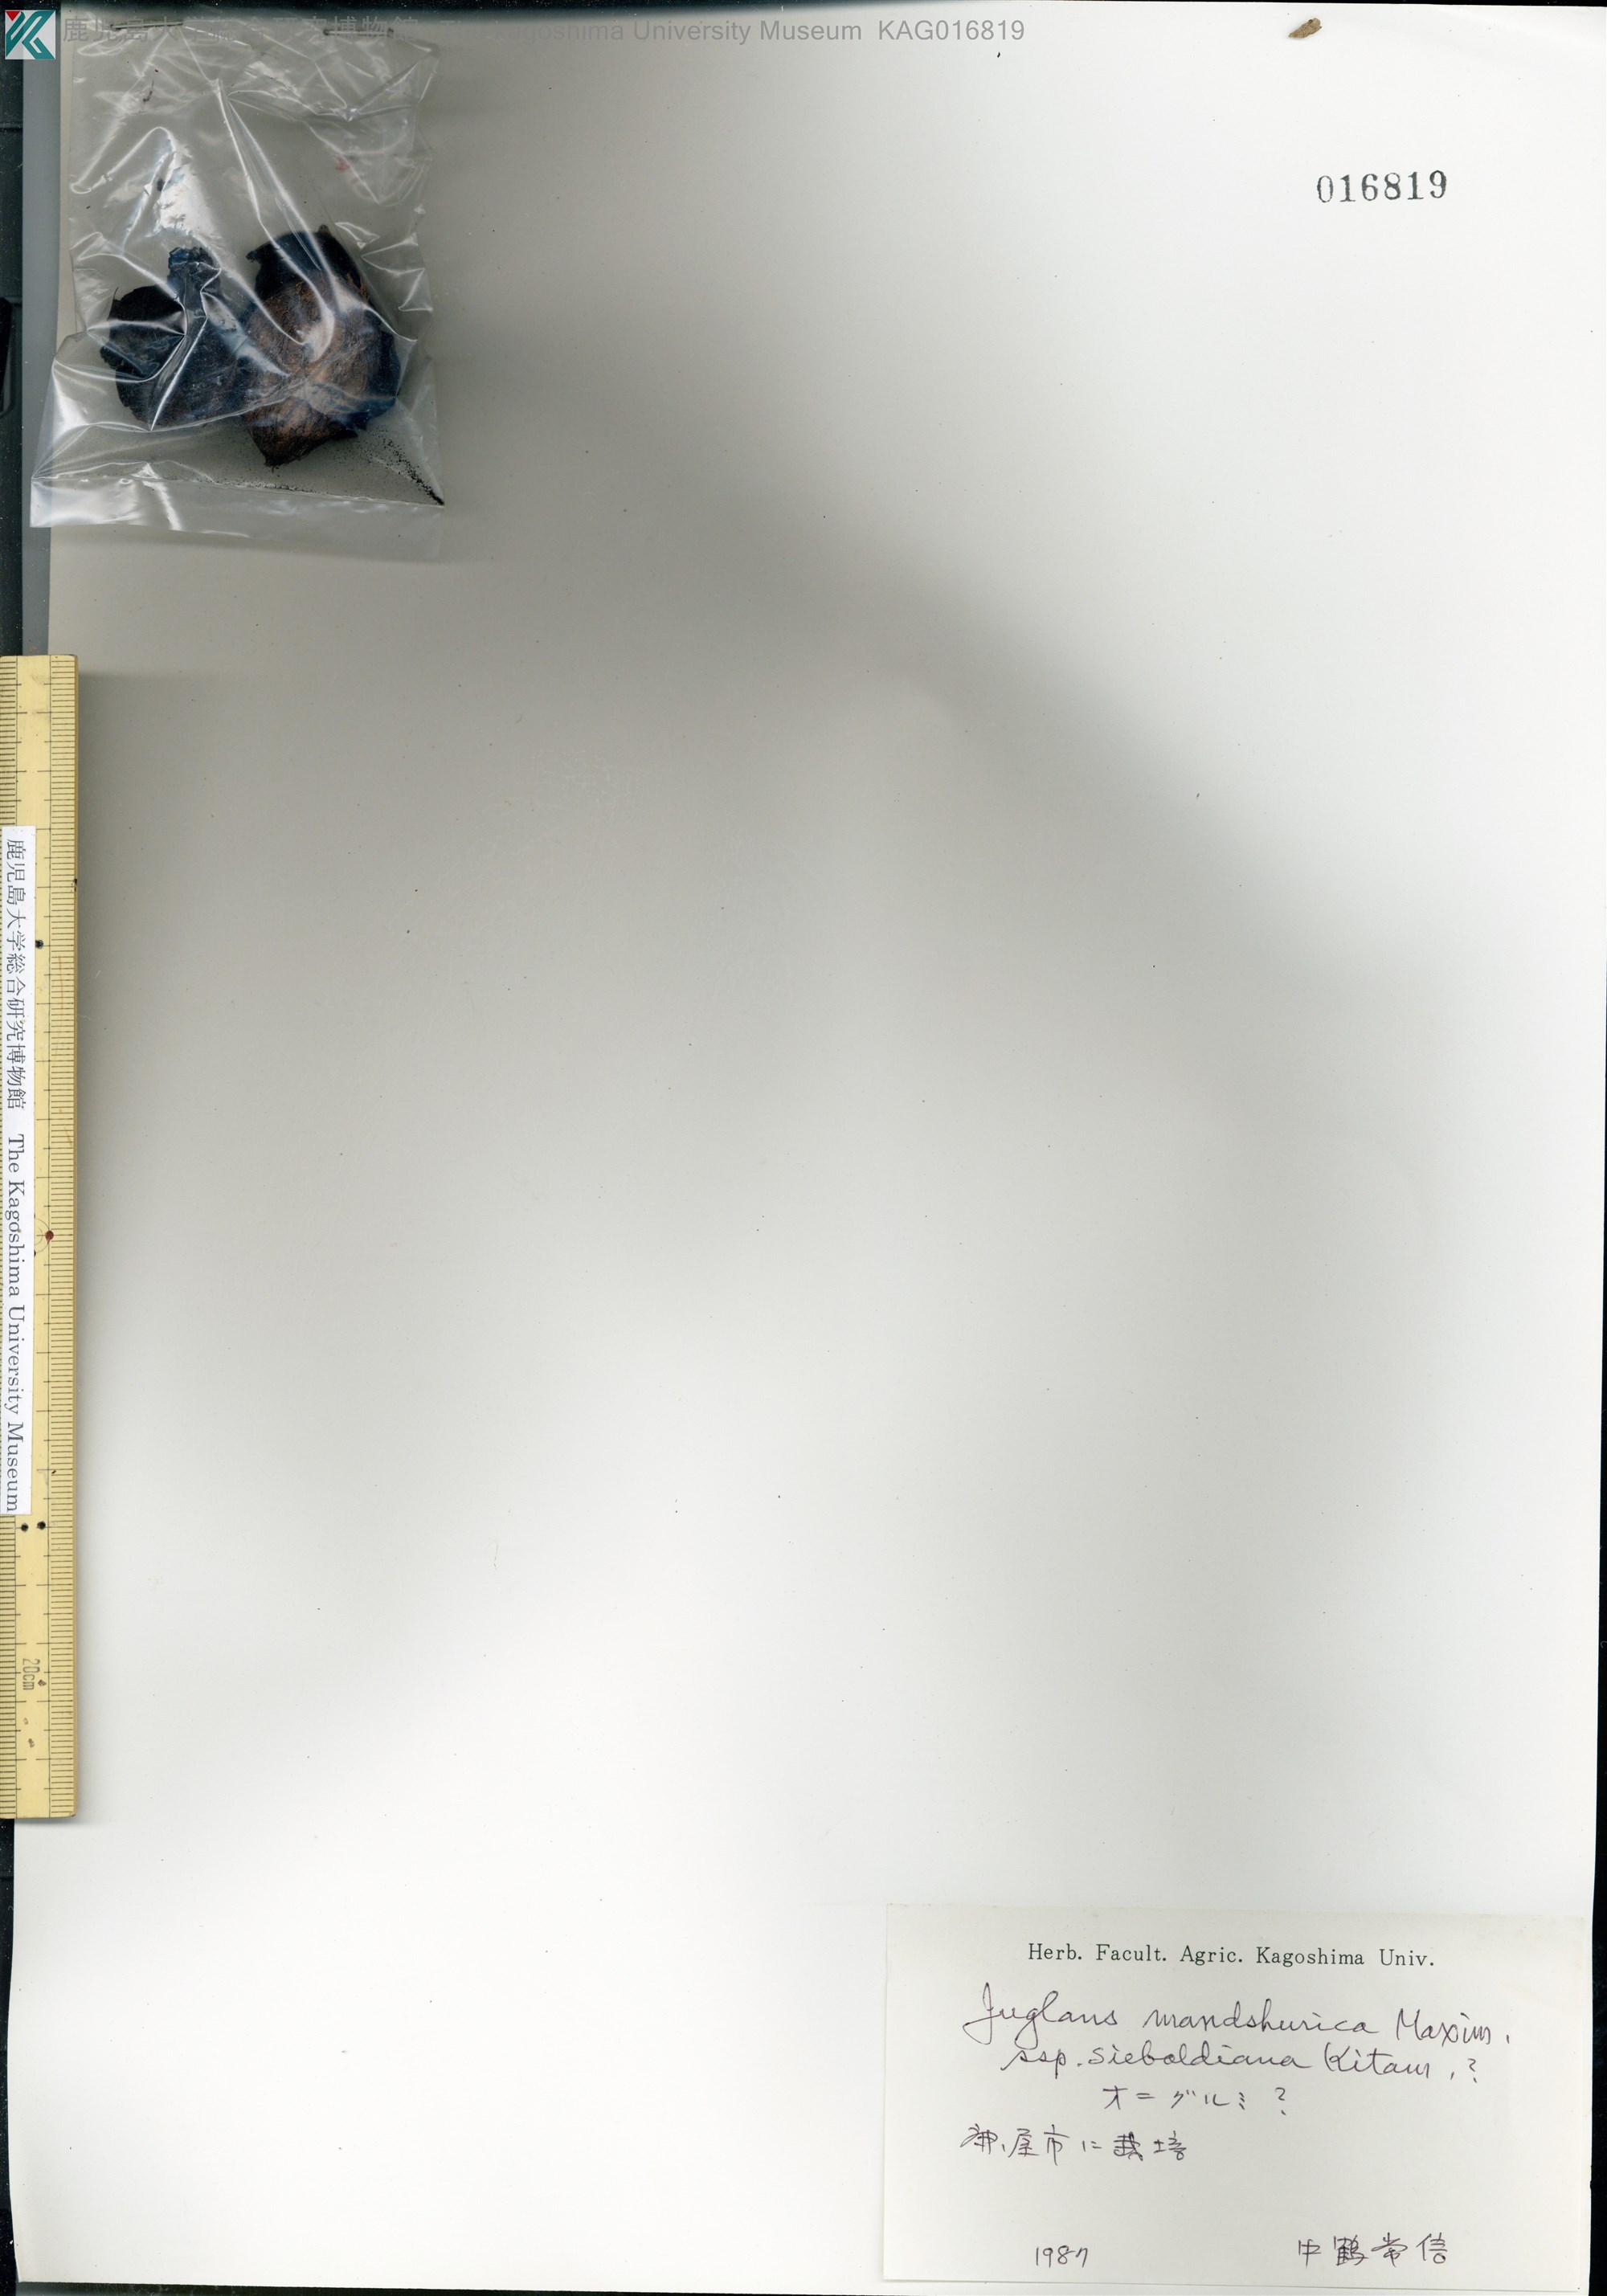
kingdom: Plantae
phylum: Tracheophyta
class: Magnoliopsida
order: Fagales
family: Juglandaceae
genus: Juglans
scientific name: Juglans ailantifolia
